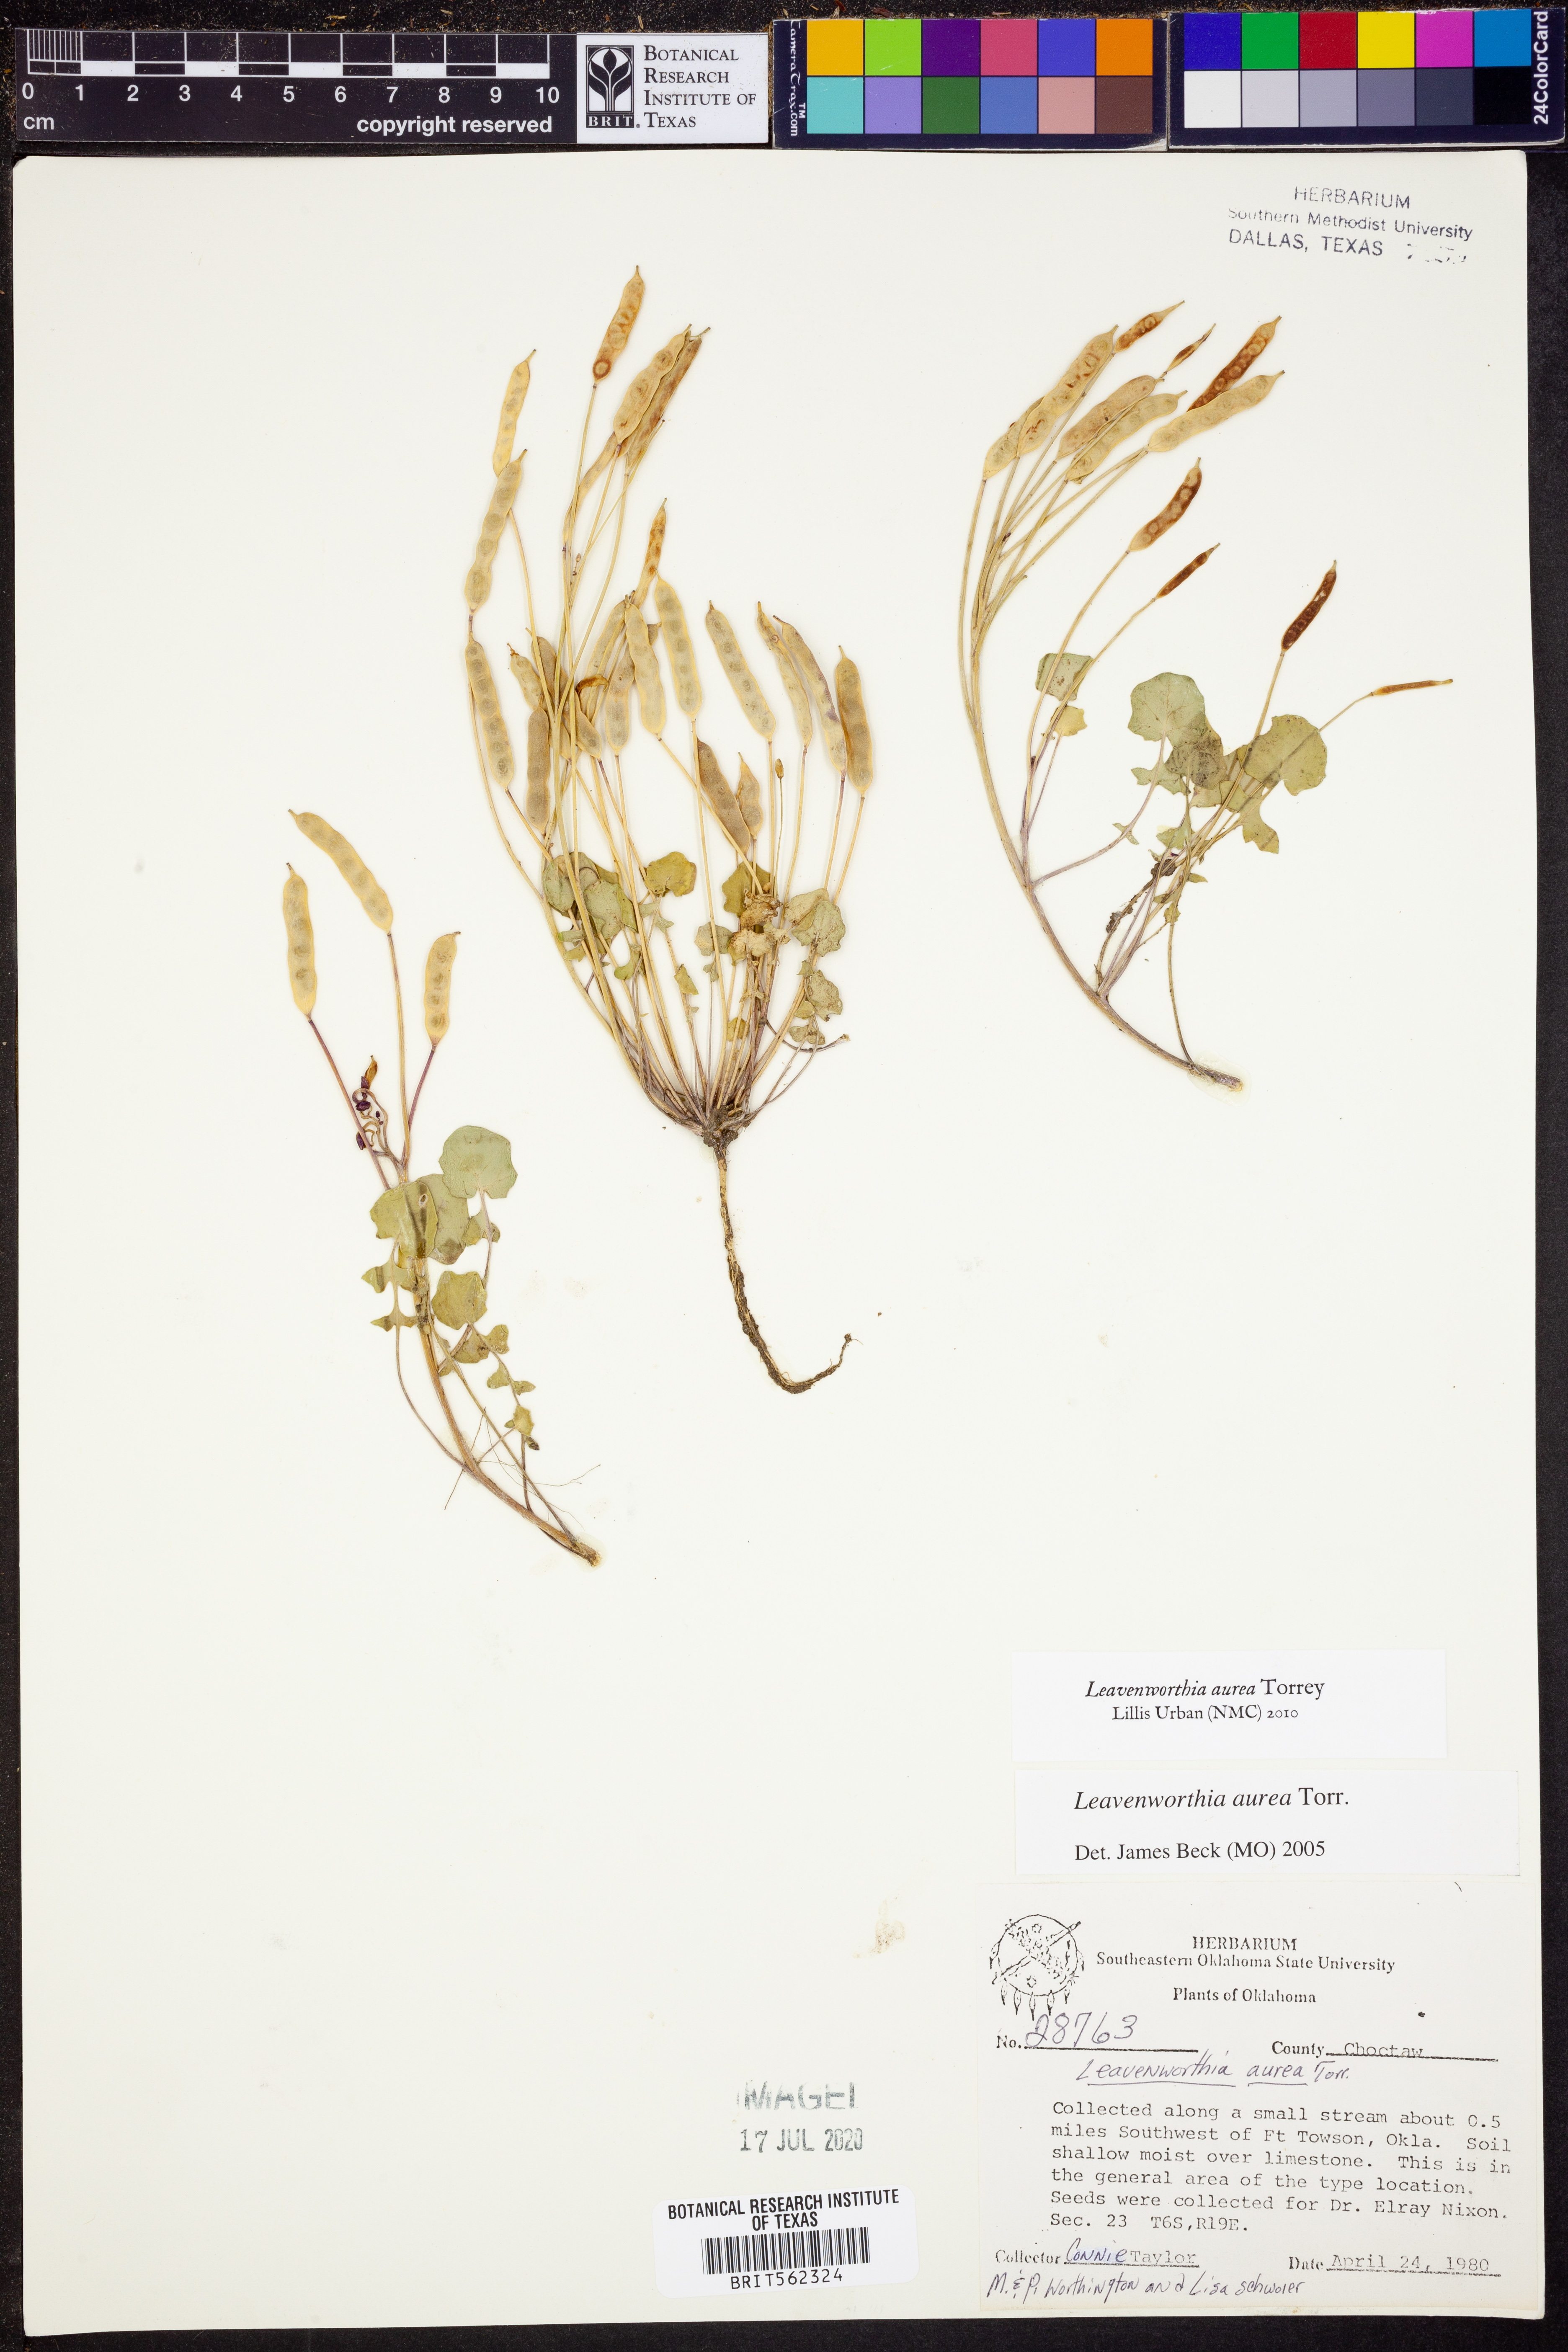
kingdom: Plantae
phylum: Tracheophyta
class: Magnoliopsida
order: Brassicales
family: Brassicaceae
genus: Leavenworthia
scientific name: Leavenworthia aurea
